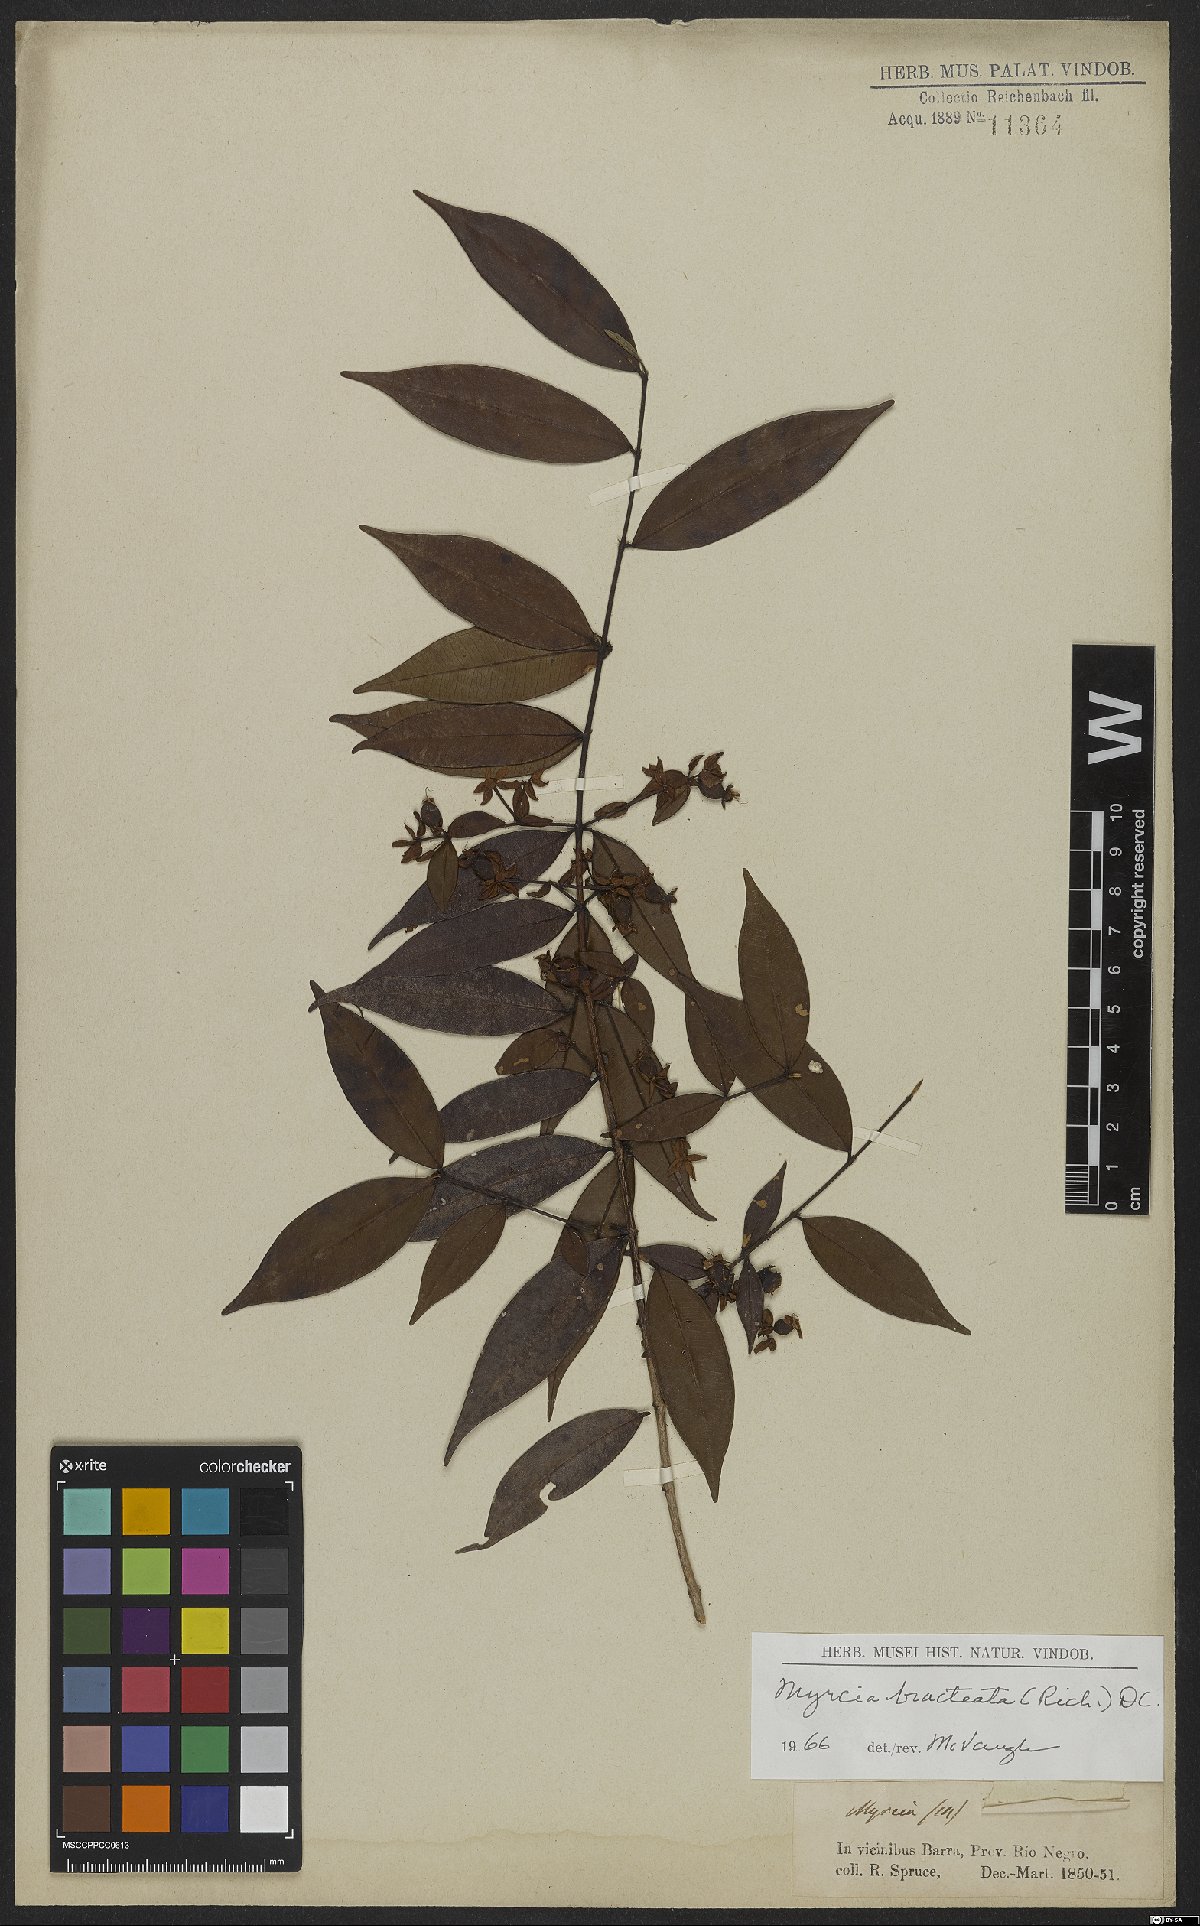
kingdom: Plantae
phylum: Tracheophyta
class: Magnoliopsida
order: Myrtales
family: Myrtaceae
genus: Myrcia
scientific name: Myrcia bracteata
